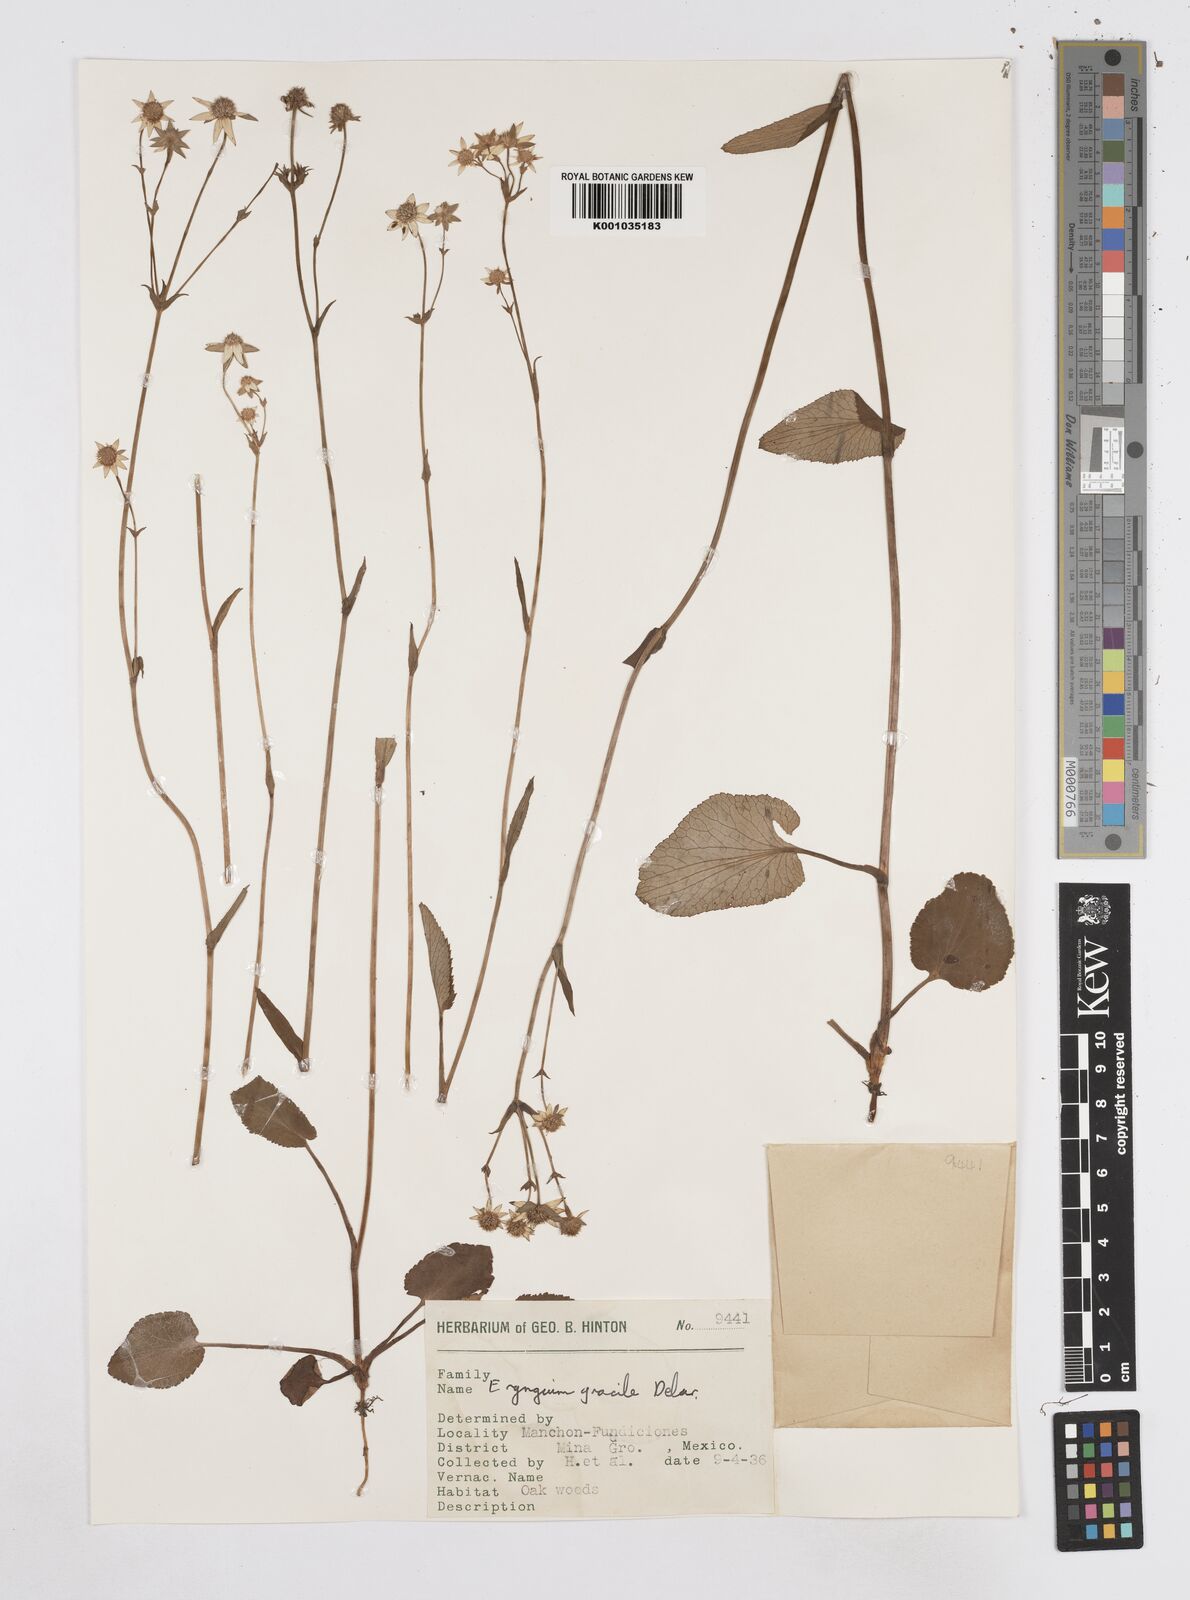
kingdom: Plantae
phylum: Tracheophyta
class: Magnoliopsida
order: Apiales
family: Apiaceae
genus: Eryngium
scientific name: Eryngium gracile
